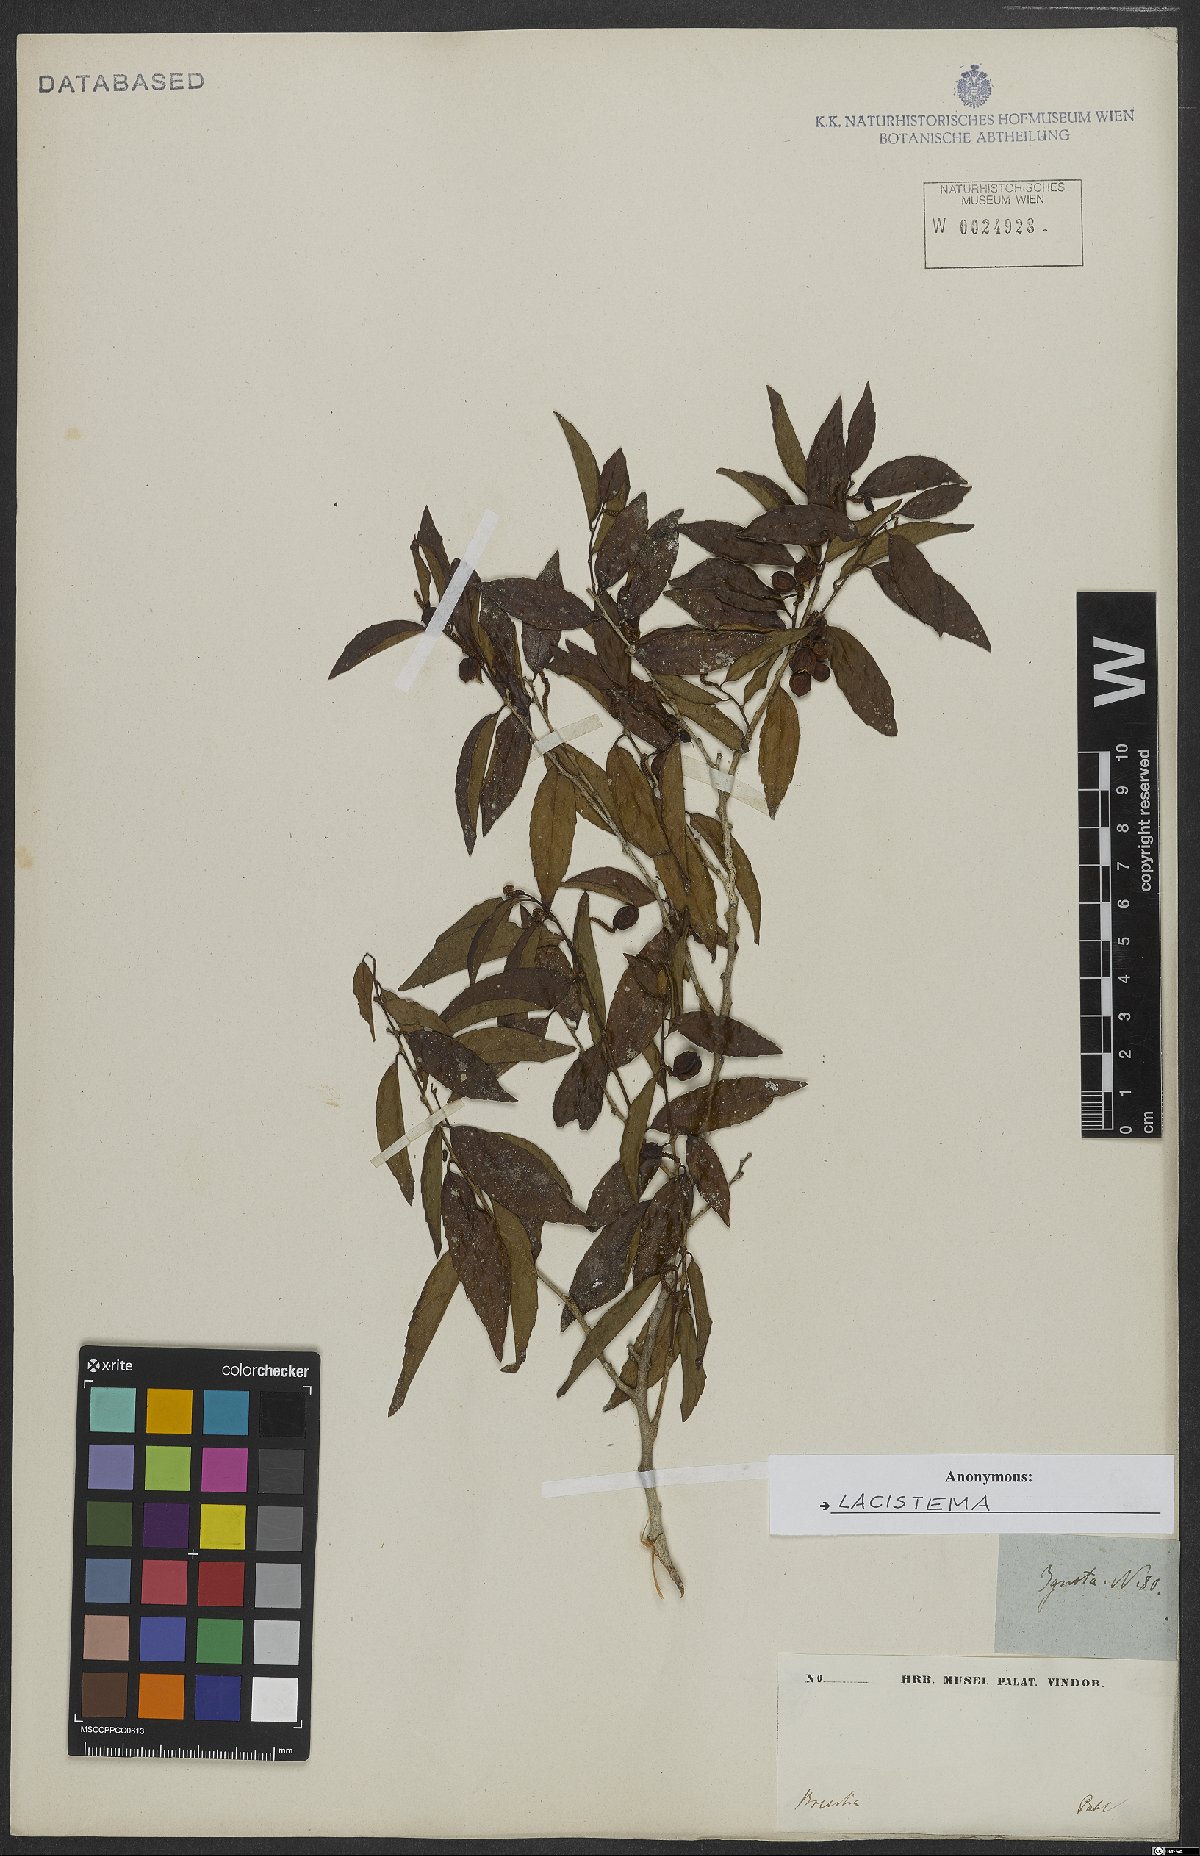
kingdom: Plantae
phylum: Tracheophyta
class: Magnoliopsida
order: Malpighiales
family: Lacistemataceae
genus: Lacistema
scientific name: Lacistema
